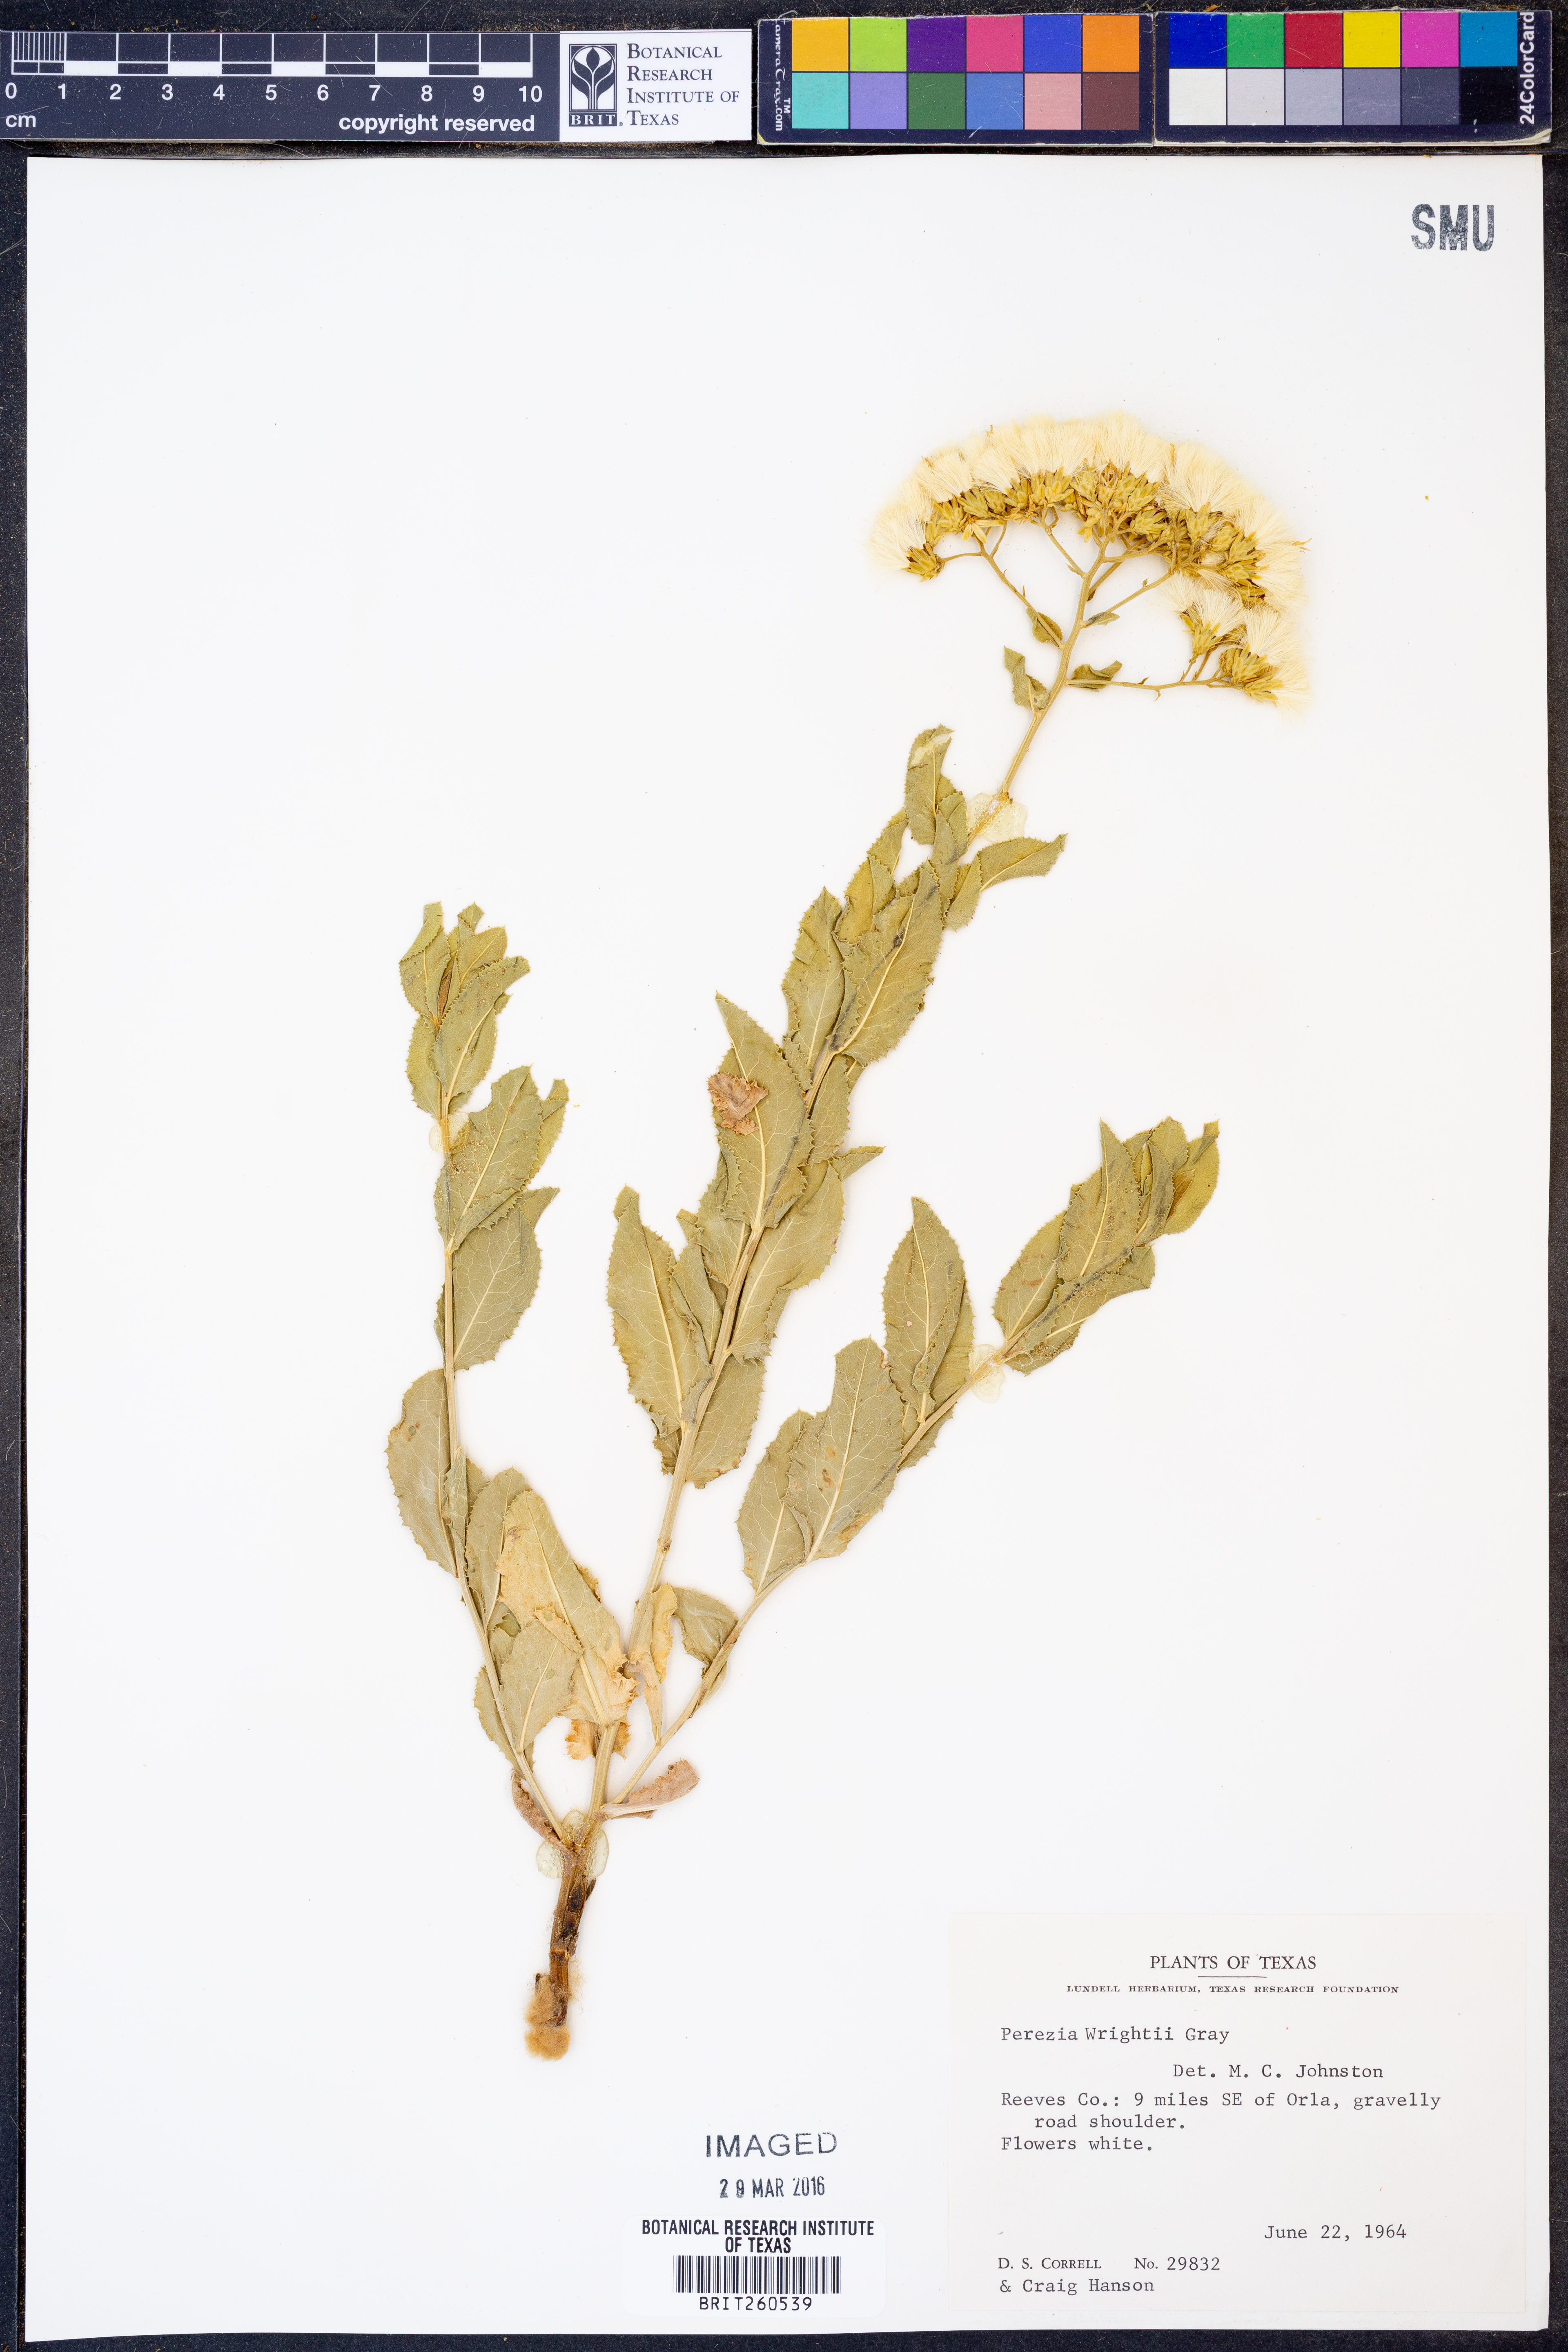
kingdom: Plantae
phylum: Tracheophyta
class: Magnoliopsida
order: Asterales
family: Asteraceae
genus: Acourtia
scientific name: Acourtia wrightii
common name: Brownfoot
